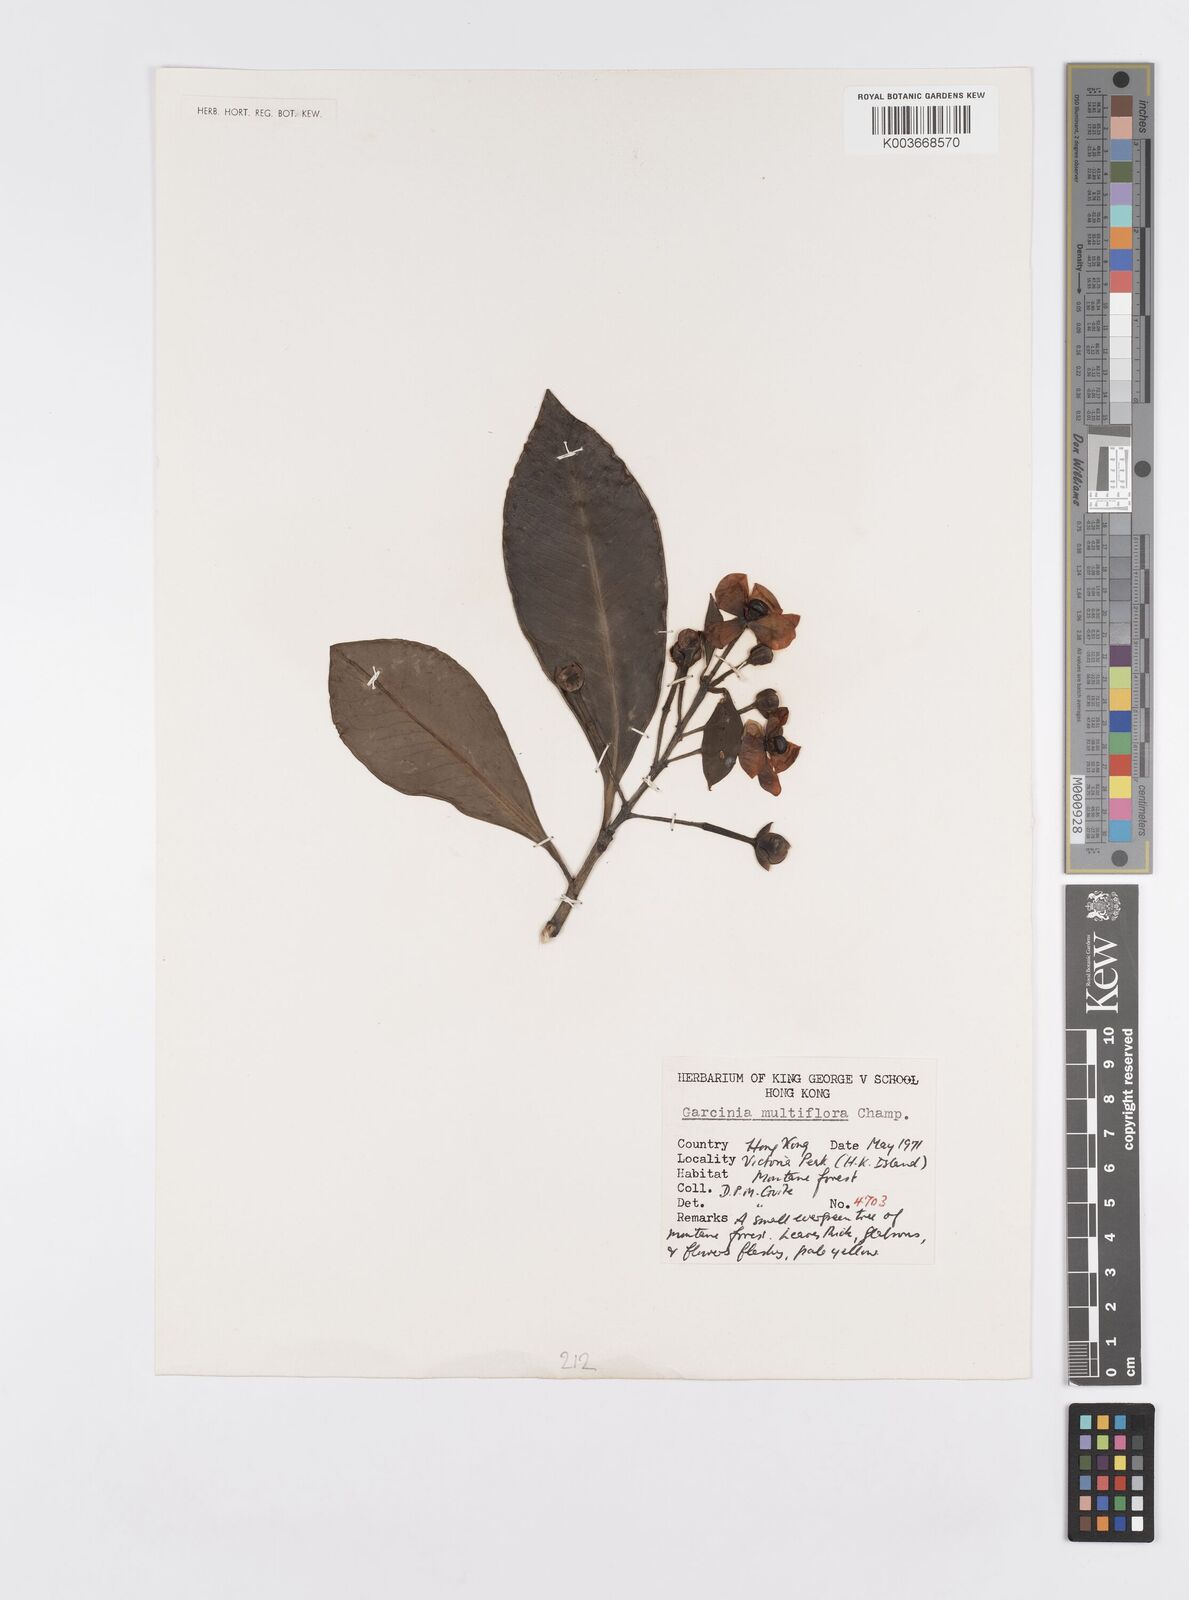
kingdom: Plantae
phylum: Tracheophyta
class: Magnoliopsida
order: Malpighiales
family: Clusiaceae
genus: Garcinia
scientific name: Garcinia multiflora
